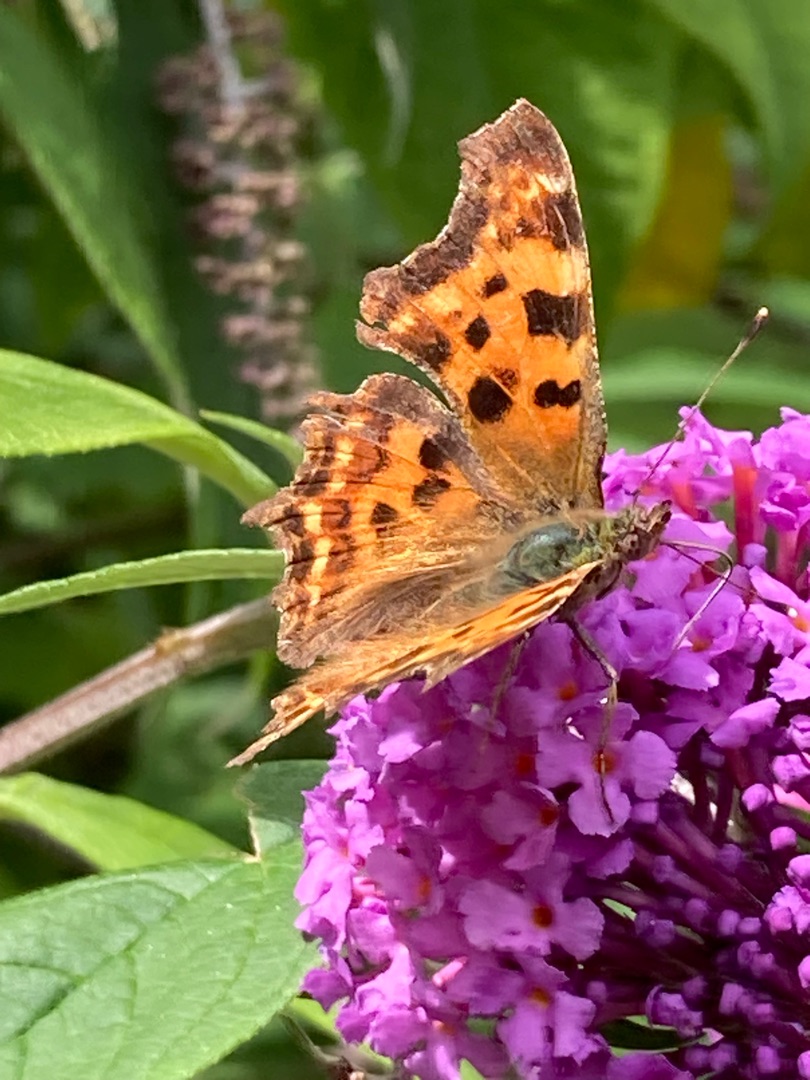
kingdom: Animalia
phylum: Arthropoda
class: Insecta
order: Lepidoptera
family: Nymphalidae
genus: Polygonia
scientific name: Polygonia c-album
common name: Det hvide C
